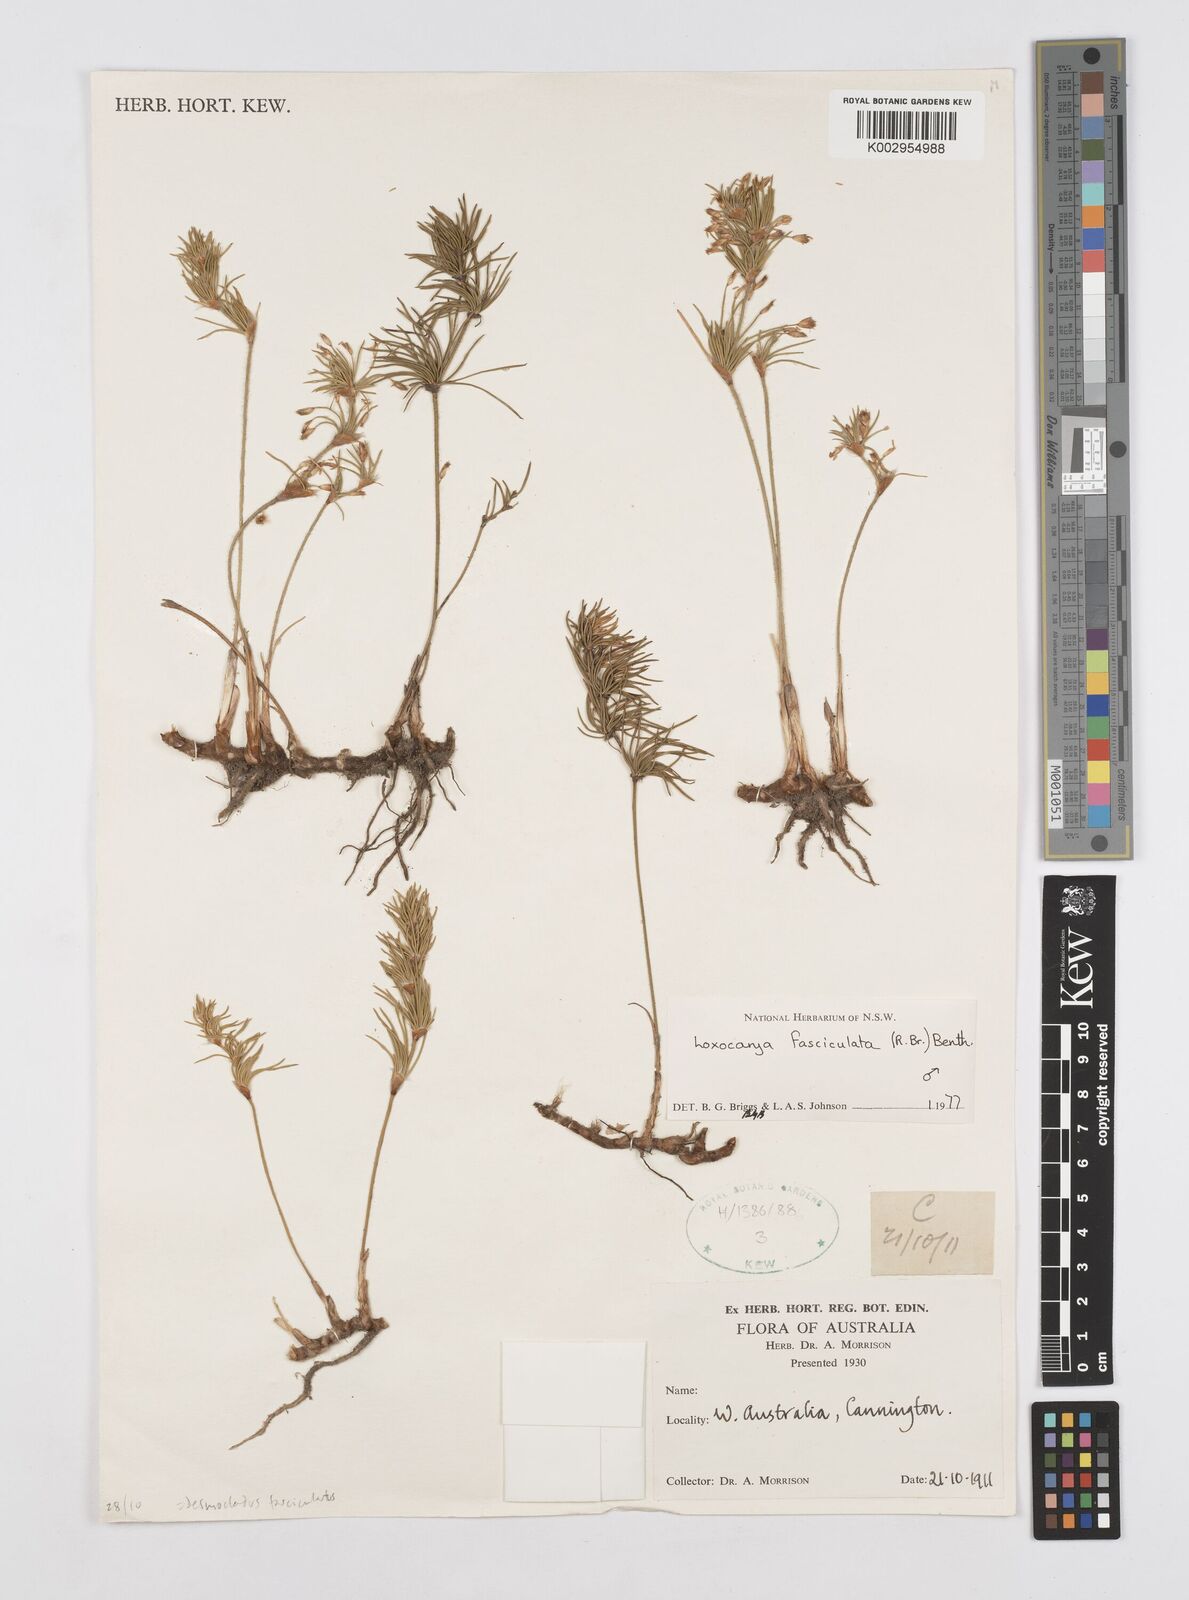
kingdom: Plantae
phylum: Tracheophyta
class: Liliopsida
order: Poales
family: Restionaceae
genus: Desmocladus
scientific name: Desmocladus fasciculatus
